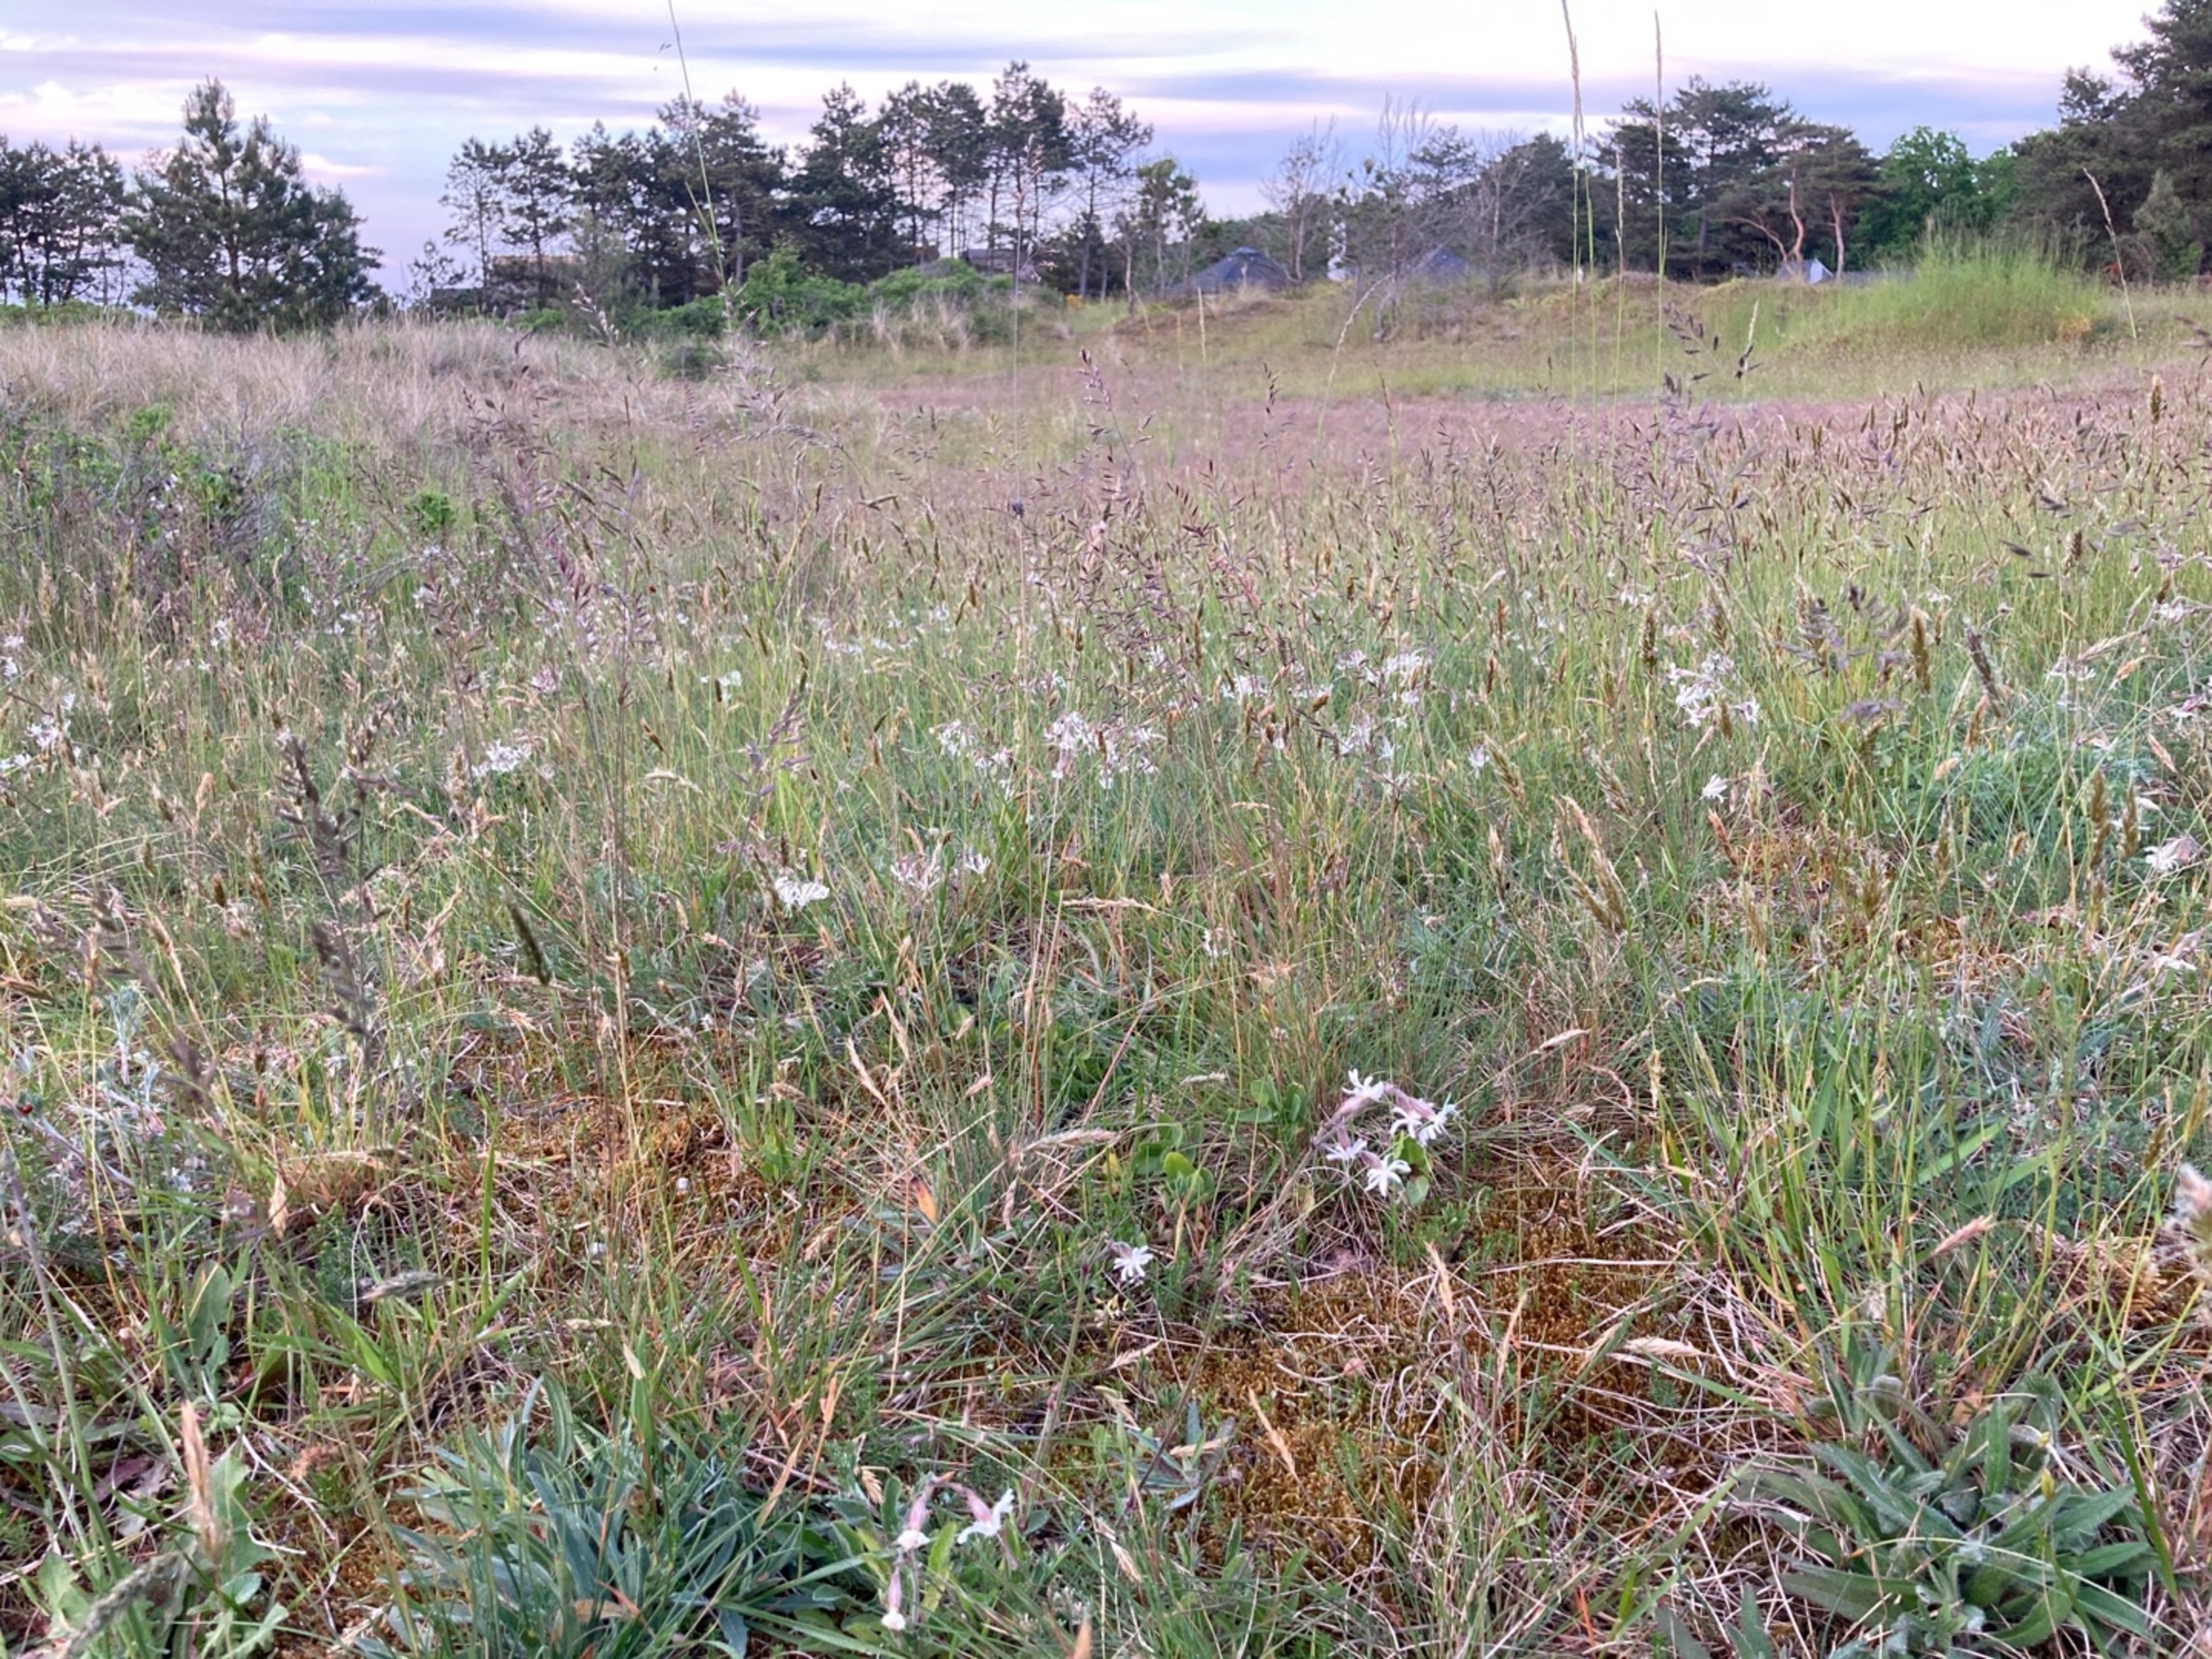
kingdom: Plantae
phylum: Tracheophyta
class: Magnoliopsida
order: Caryophyllales
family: Caryophyllaceae
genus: Silene
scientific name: Silene nutans
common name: Nikkende limurt
